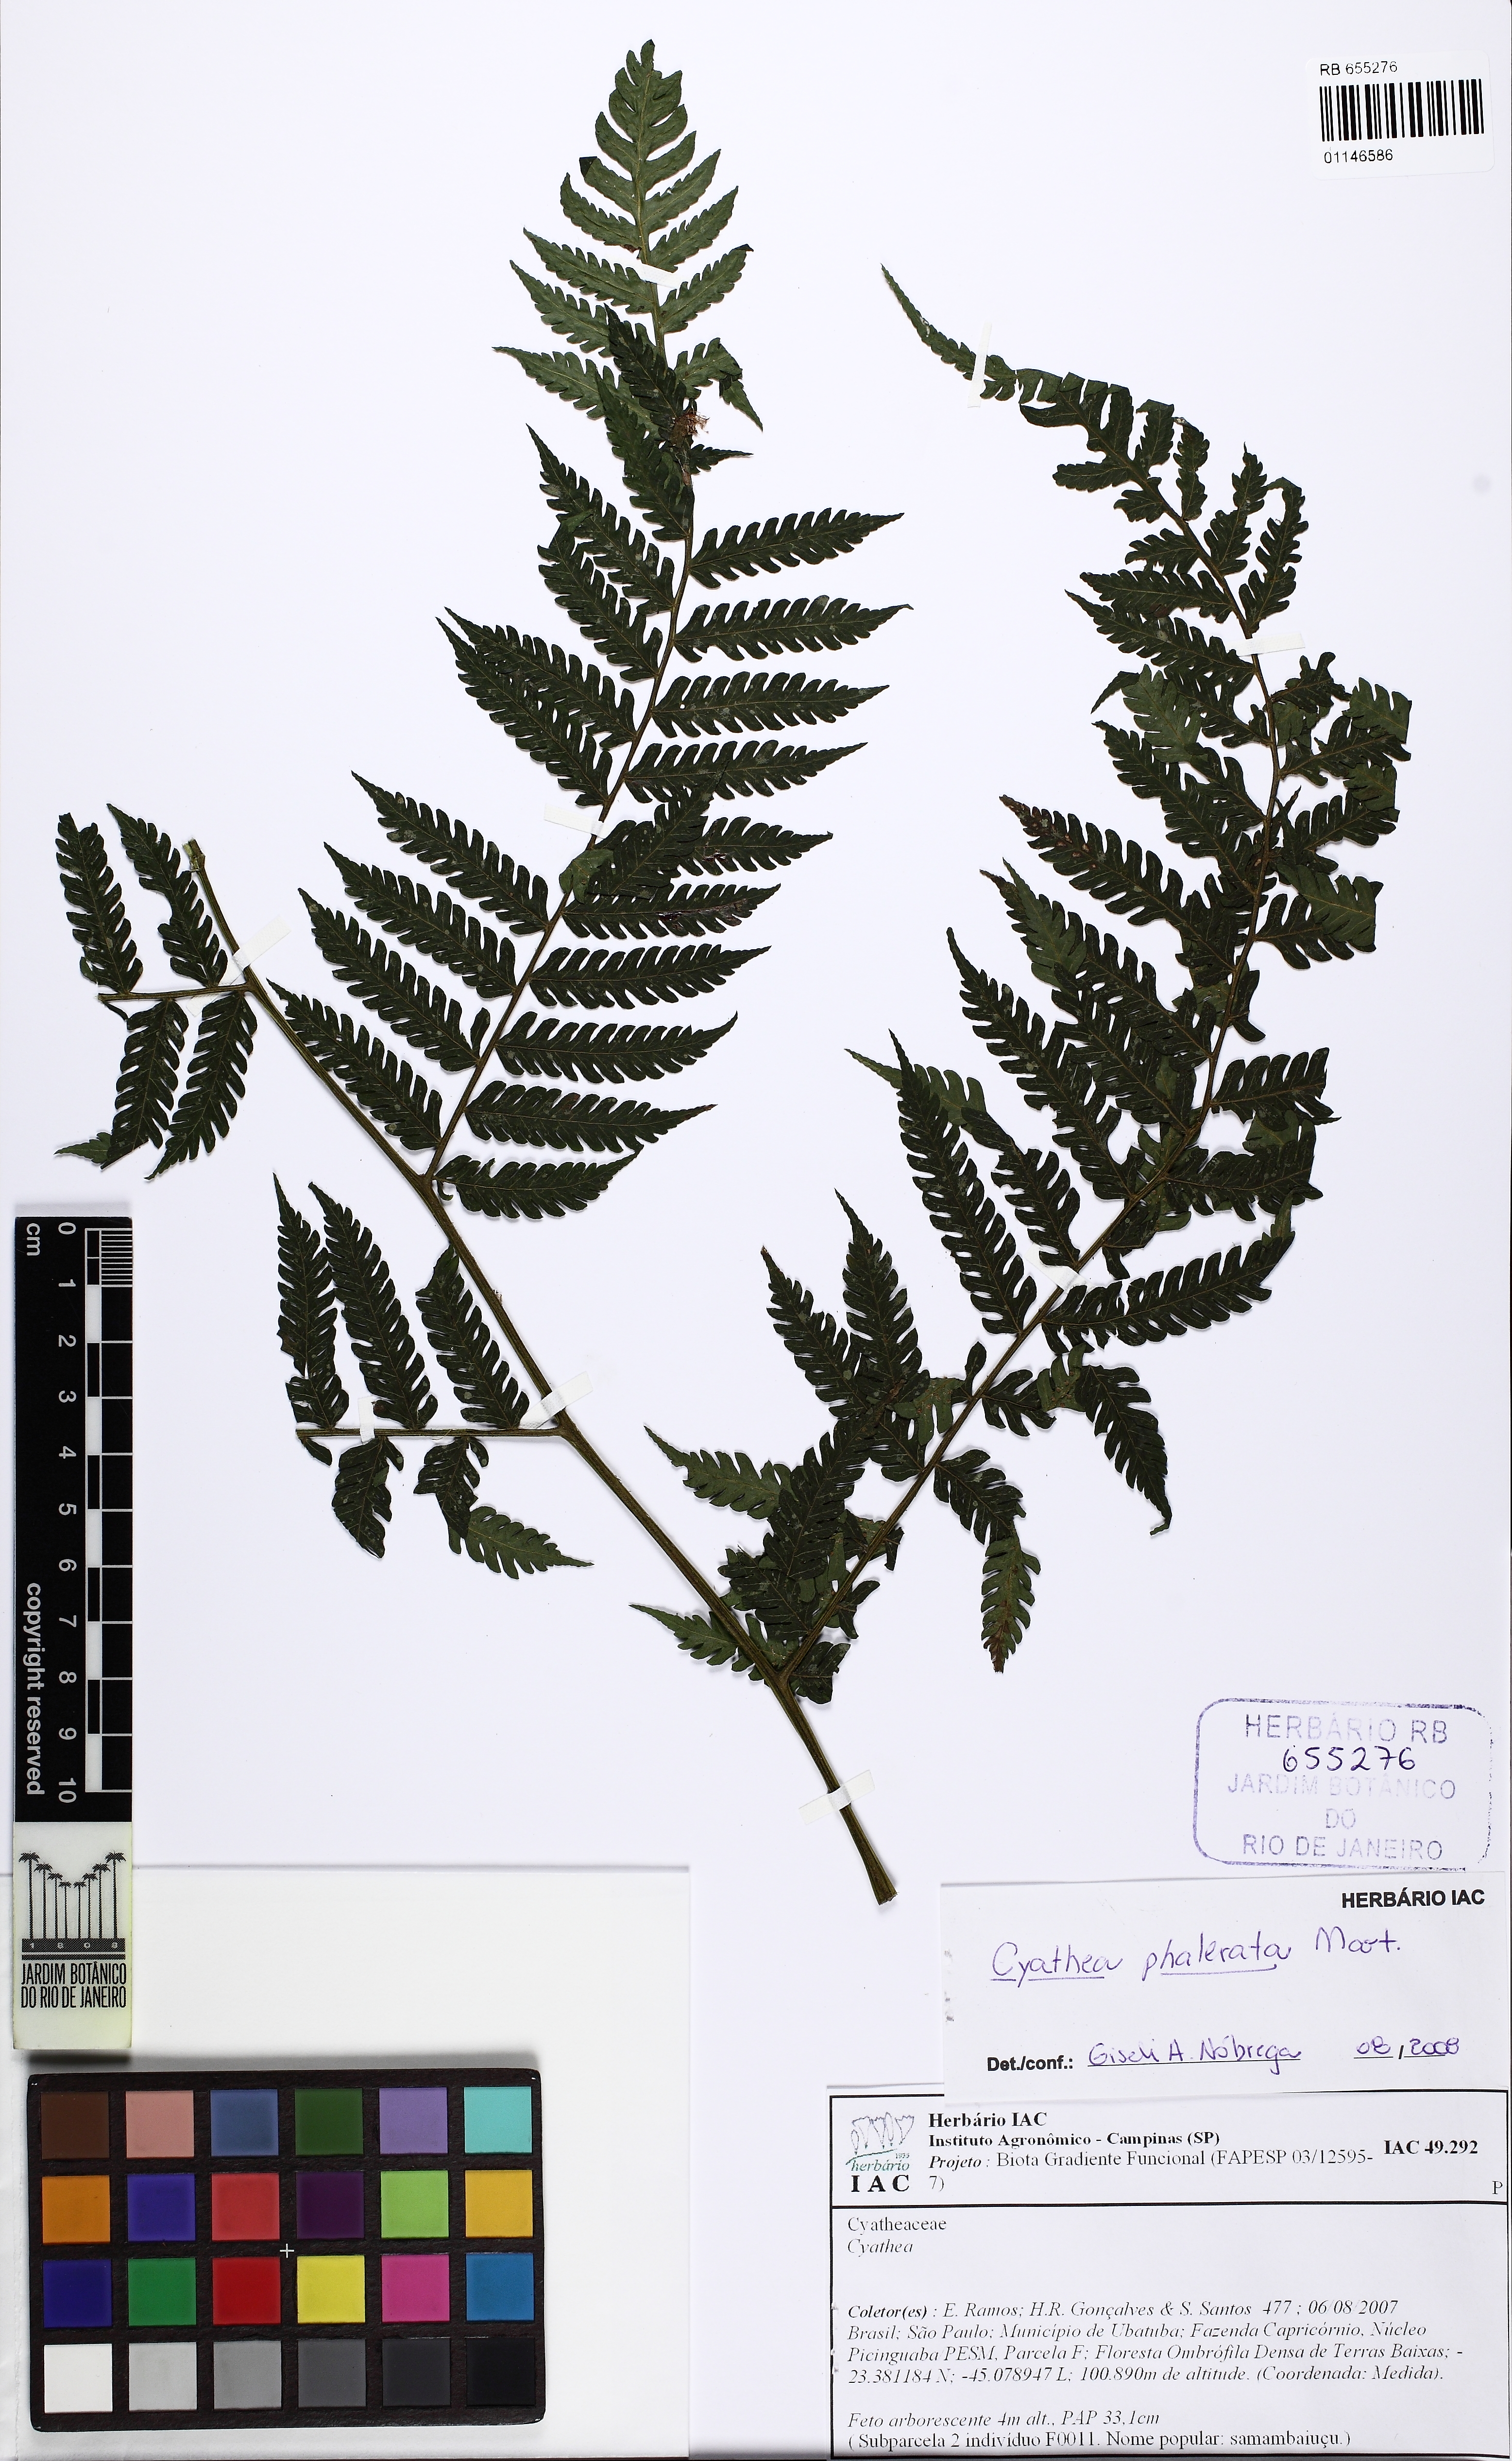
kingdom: Plantae
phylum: Tracheophyta
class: Polypodiopsida
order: Cyatheales
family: Cyatheaceae
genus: Cyathea
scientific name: Cyathea phalerata
